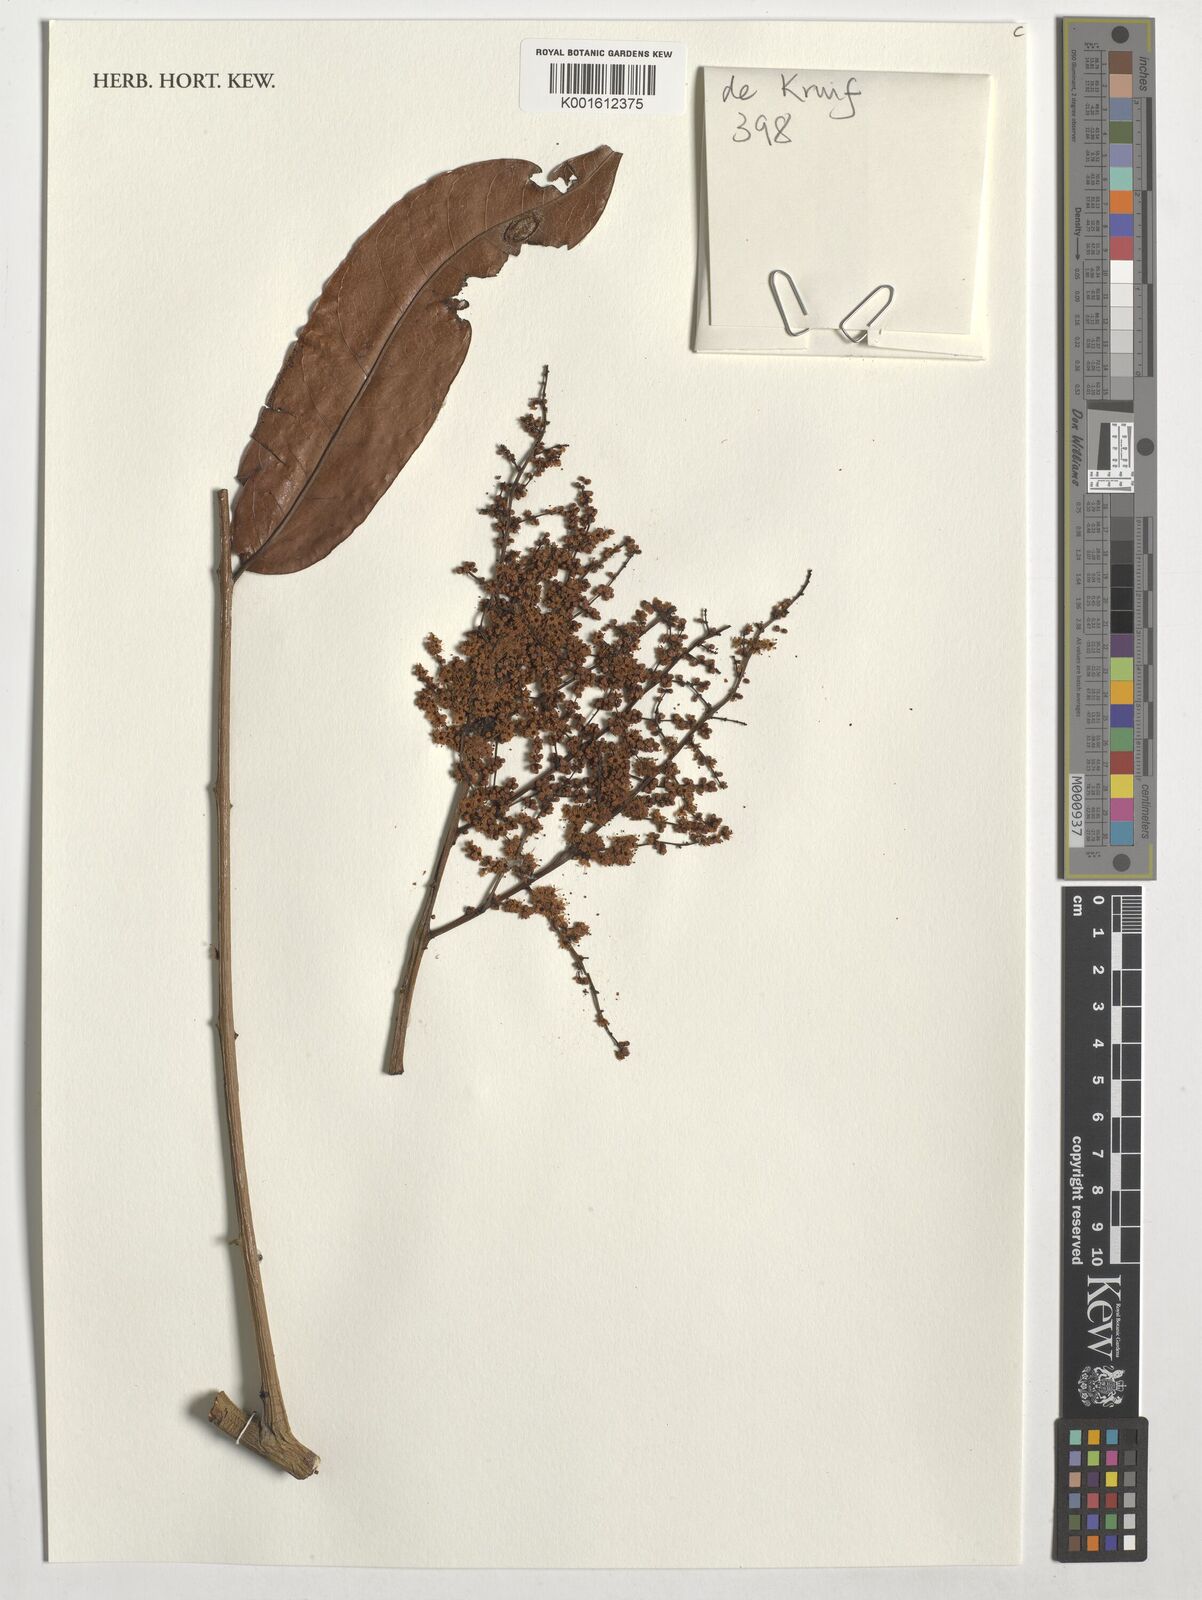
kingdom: Plantae
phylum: Tracheophyta
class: Magnoliopsida
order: Sapindales
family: Anacardiaceae
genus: Trichoscypha
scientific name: Trichoscypha lucens
